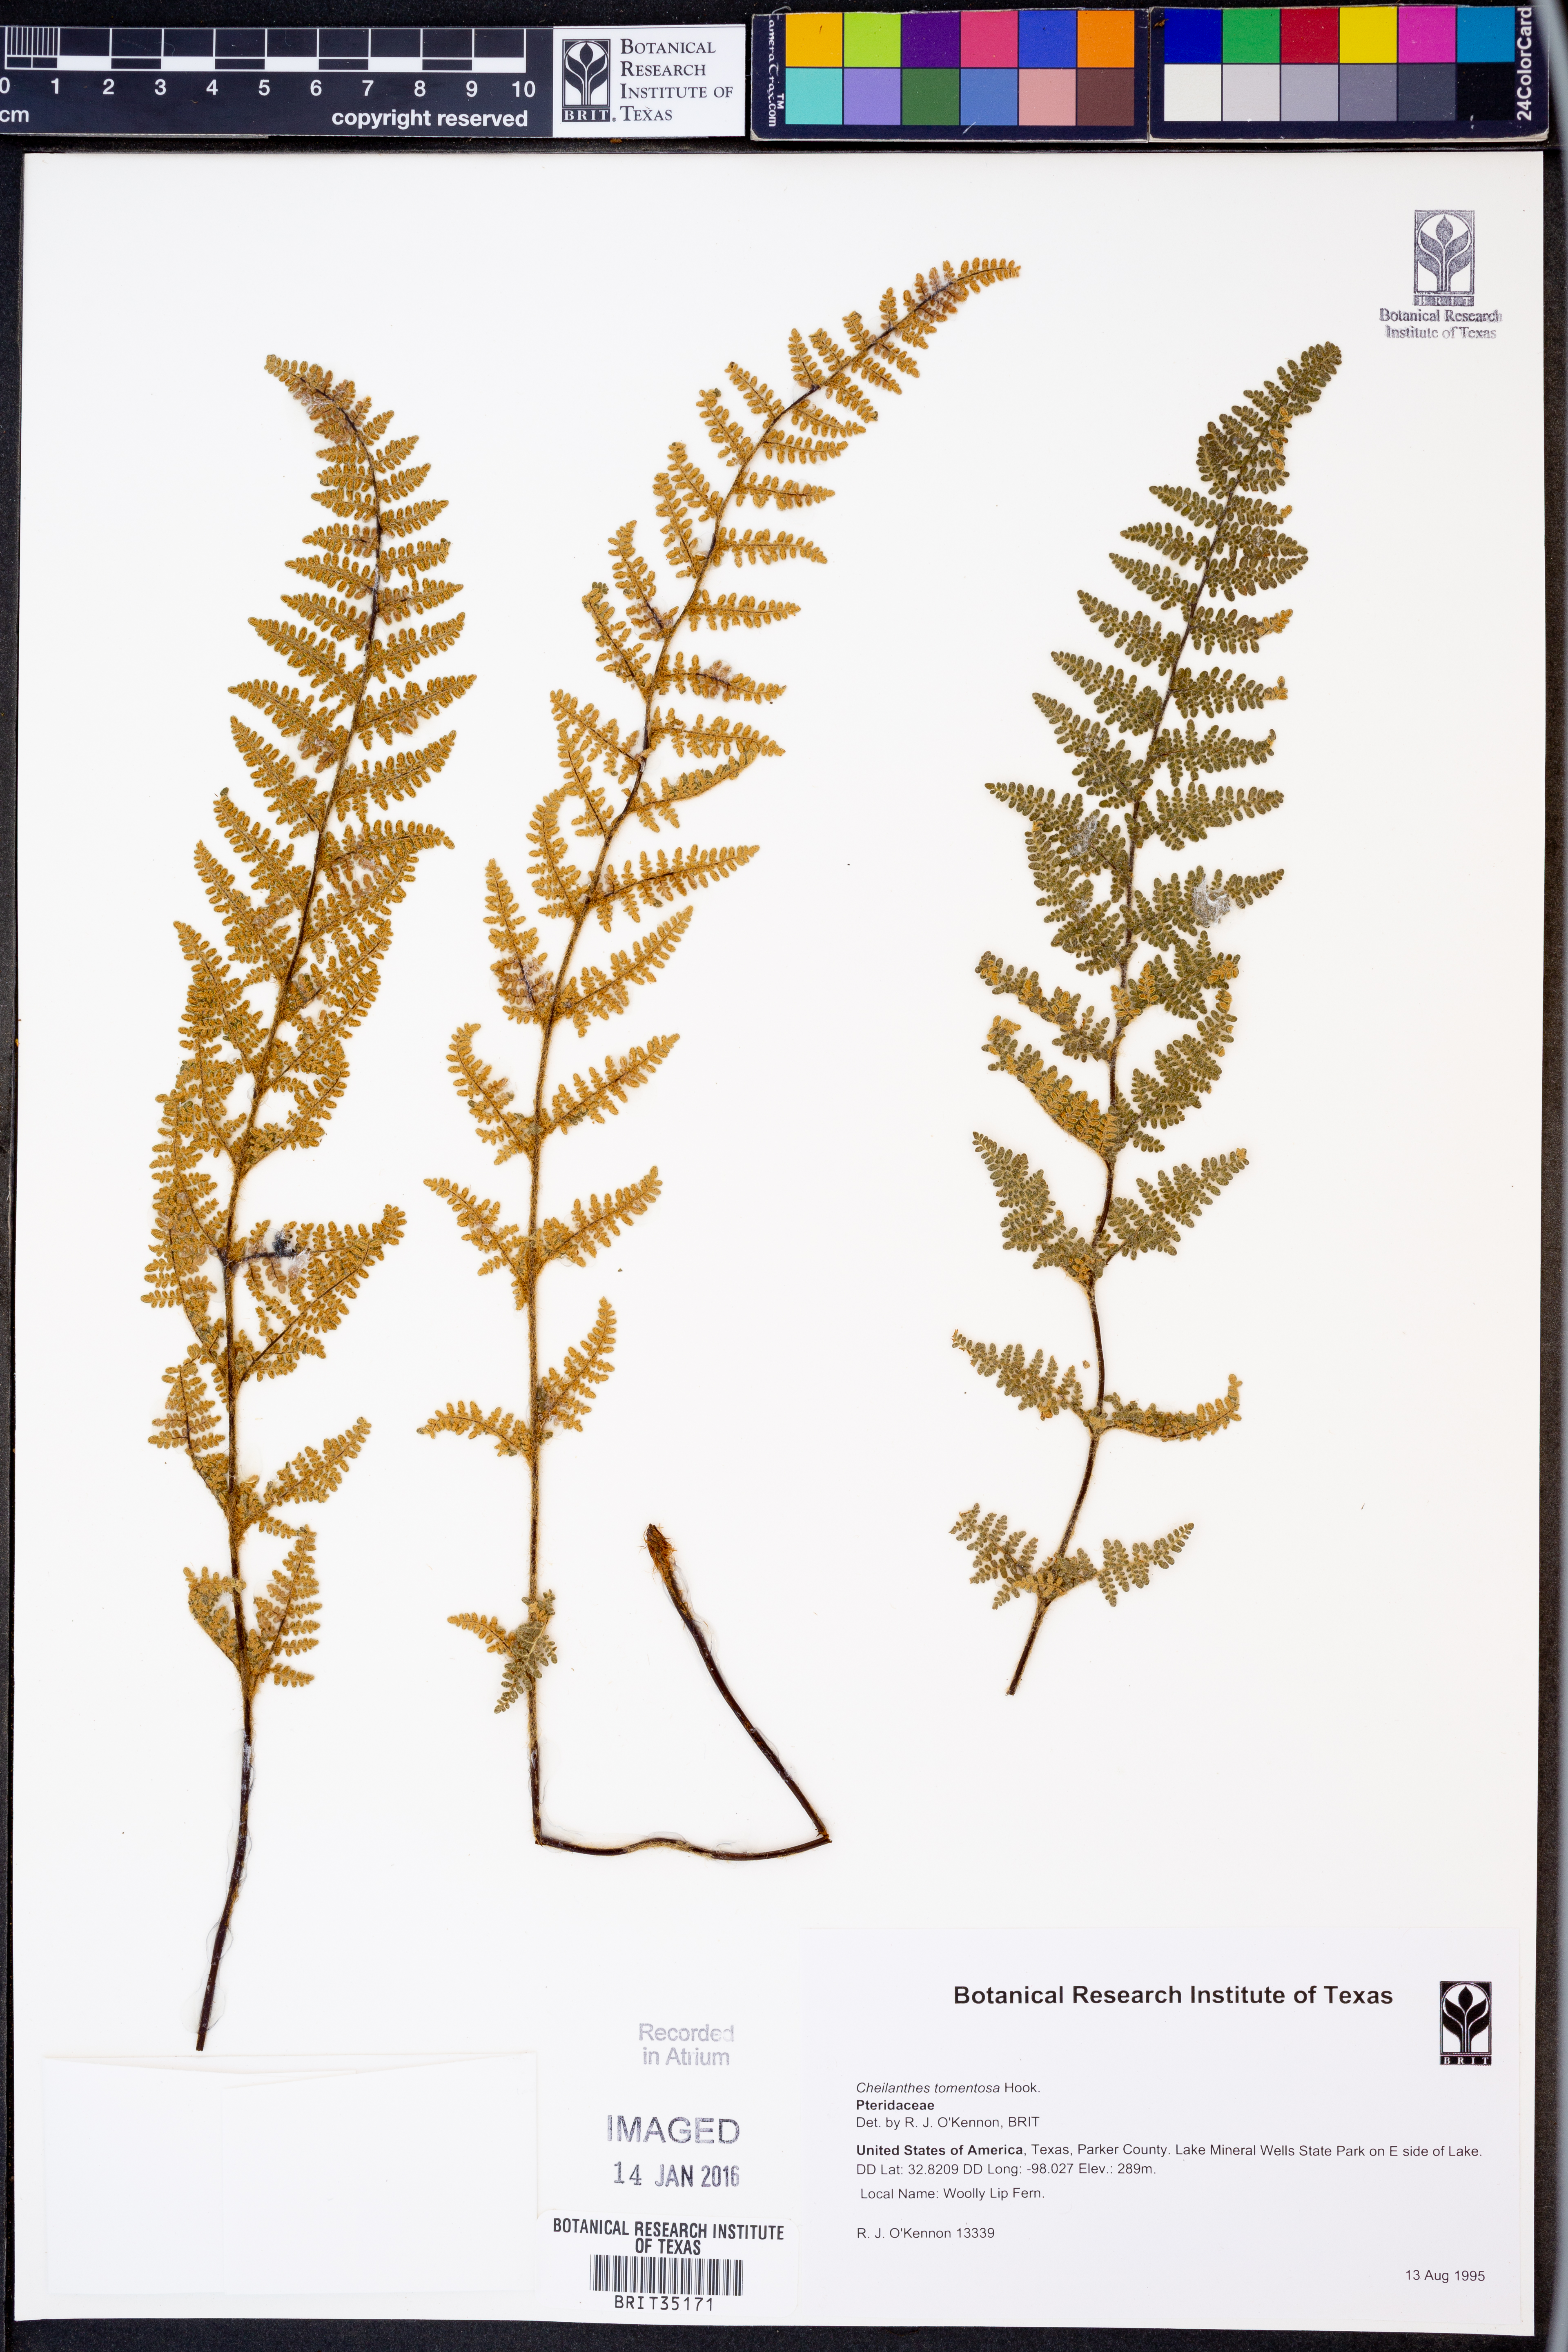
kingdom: Plantae
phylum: Tracheophyta
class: Polypodiopsida
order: Polypodiales
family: Pteridaceae
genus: Myriopteris
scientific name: Myriopteris tomentosa
